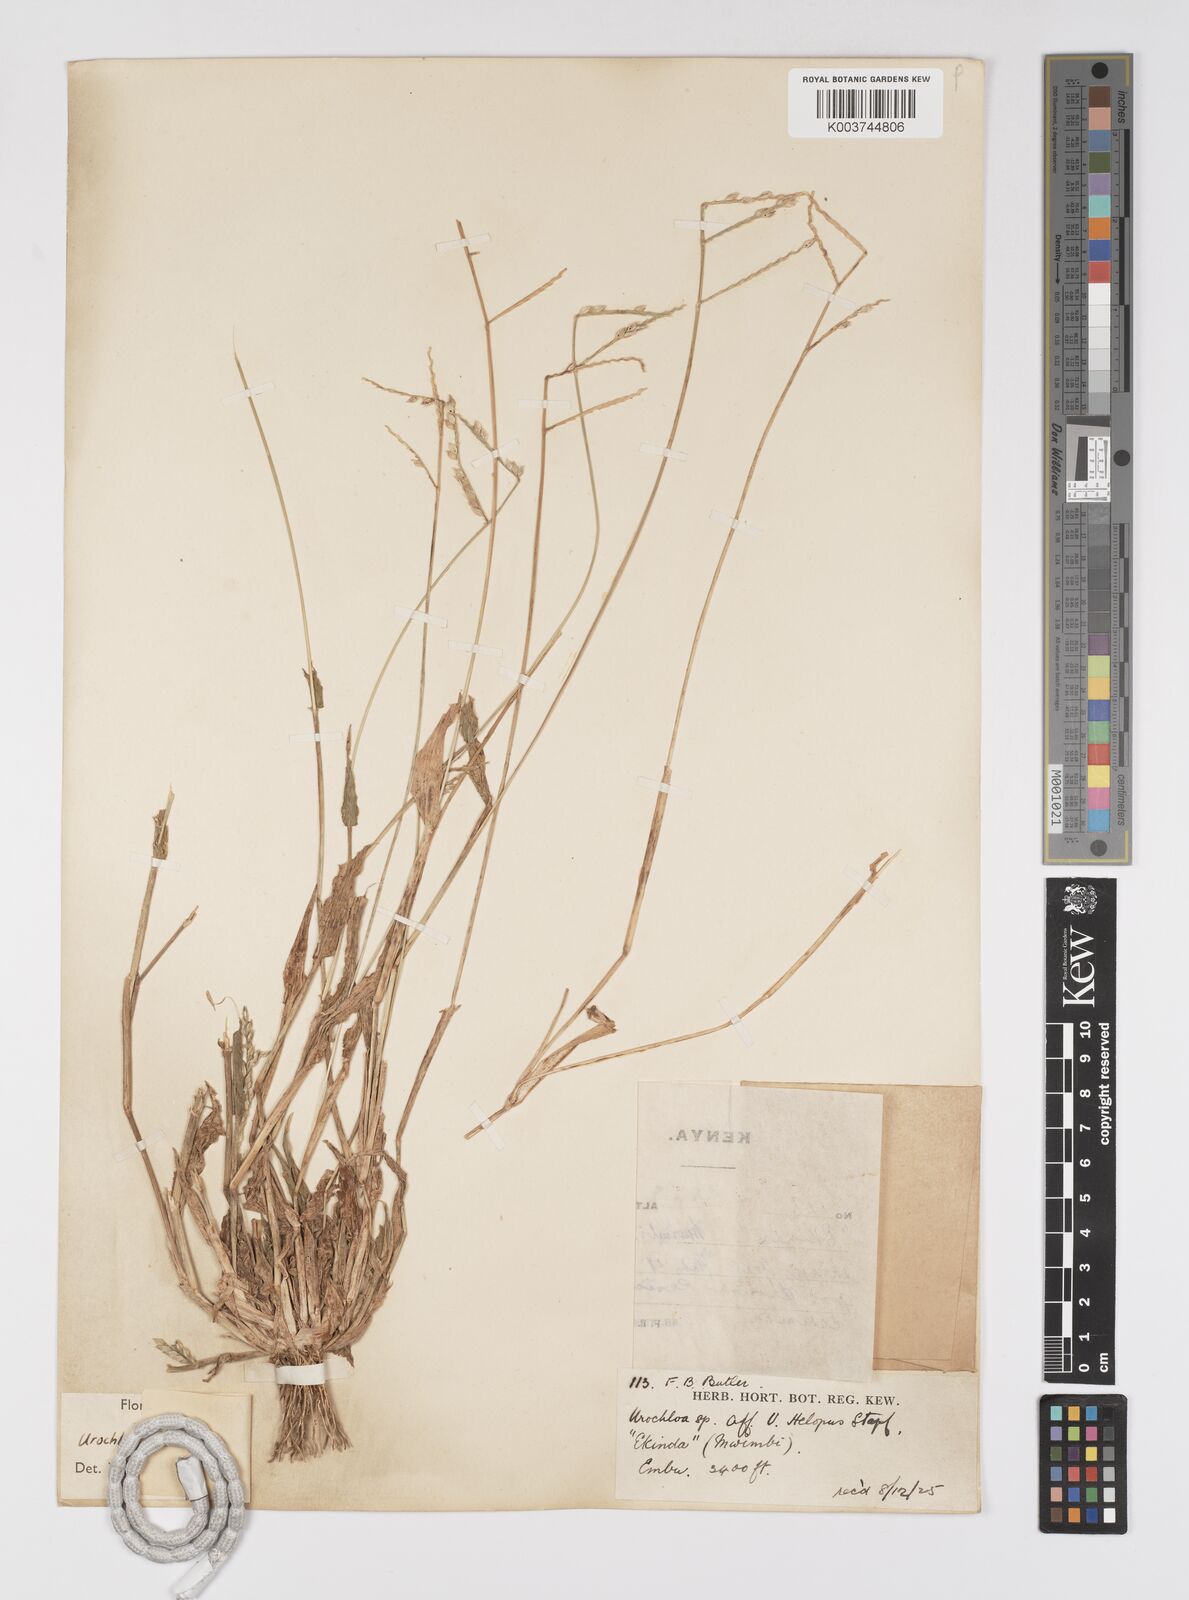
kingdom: Plantae
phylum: Tracheophyta
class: Liliopsida
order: Poales
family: Poaceae
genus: Urochloa
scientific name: Urochloa panicoides
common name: Sharp-flowered signal-grass
